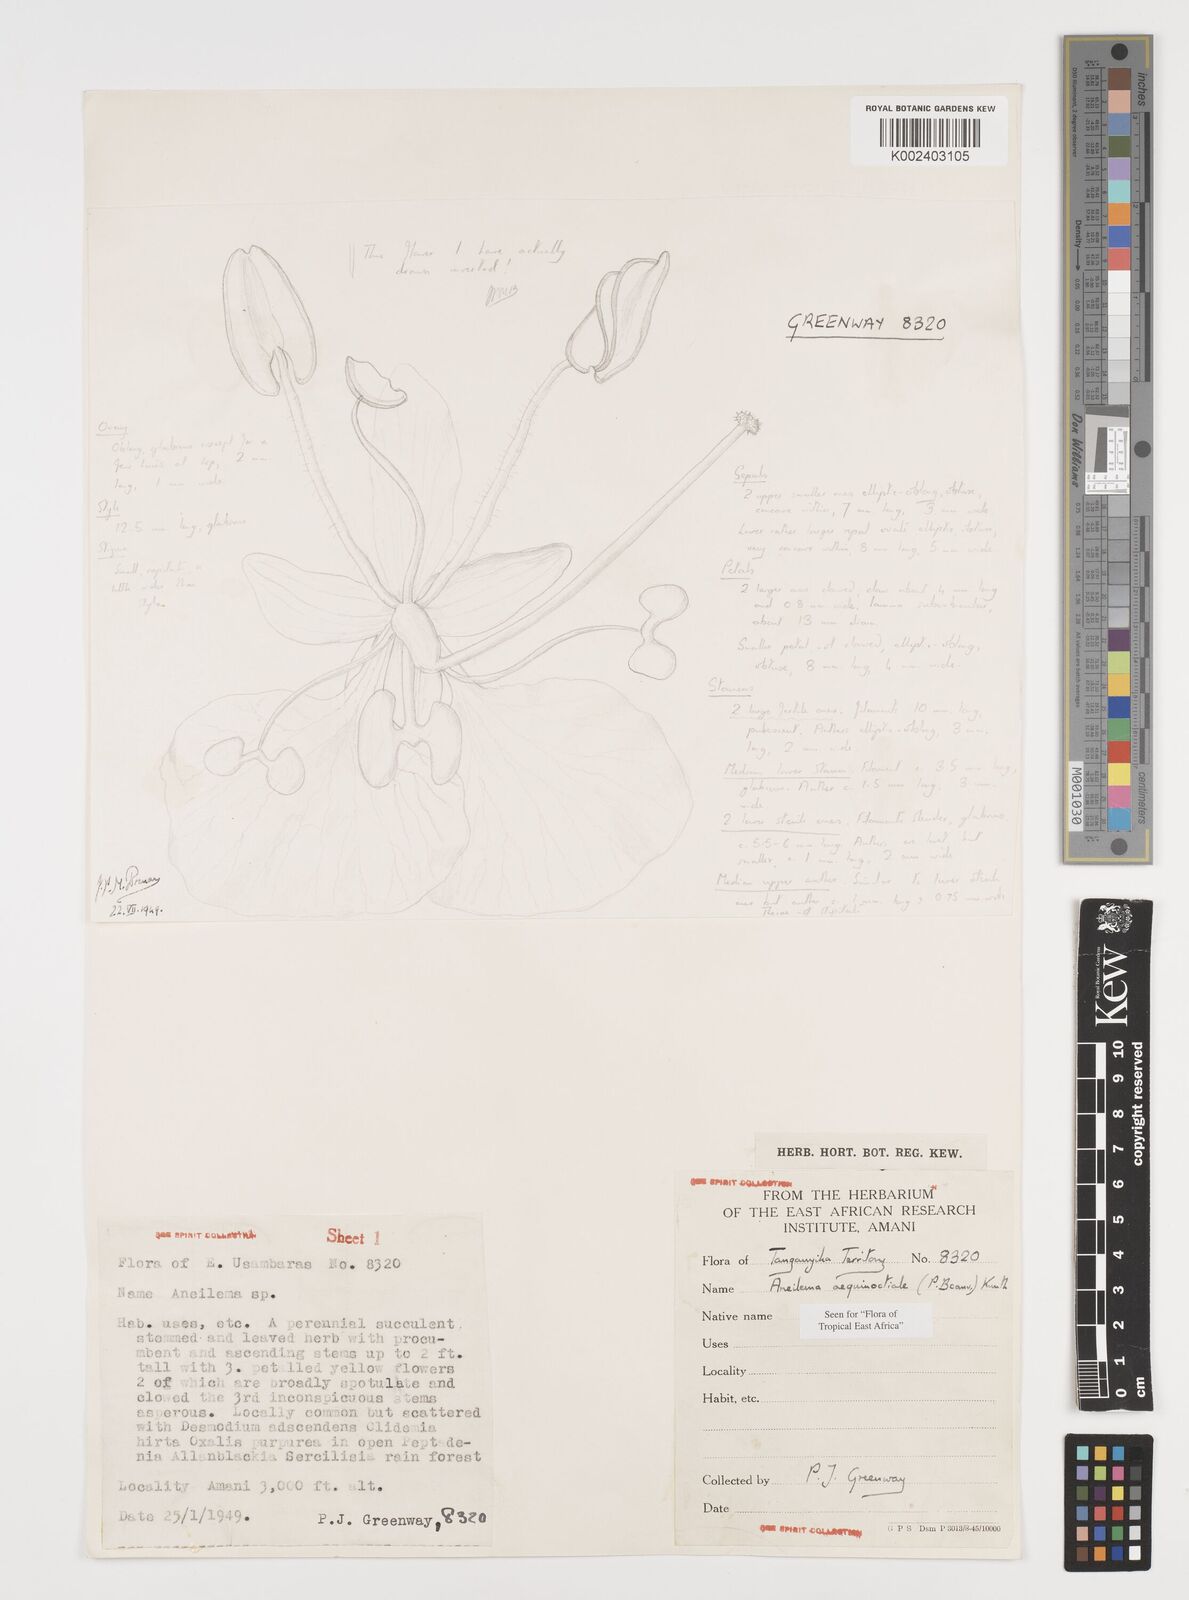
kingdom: Plantae
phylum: Tracheophyta
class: Liliopsida
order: Commelinales
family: Commelinaceae
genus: Aneilema
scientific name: Aneilema aequinoctiale
